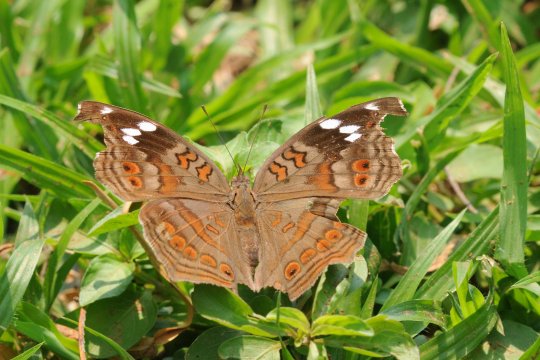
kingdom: Animalia
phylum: Arthropoda
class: Insecta
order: Lepidoptera
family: Nymphalidae
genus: Junonia
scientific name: Junonia natalica
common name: Natal Pansy
